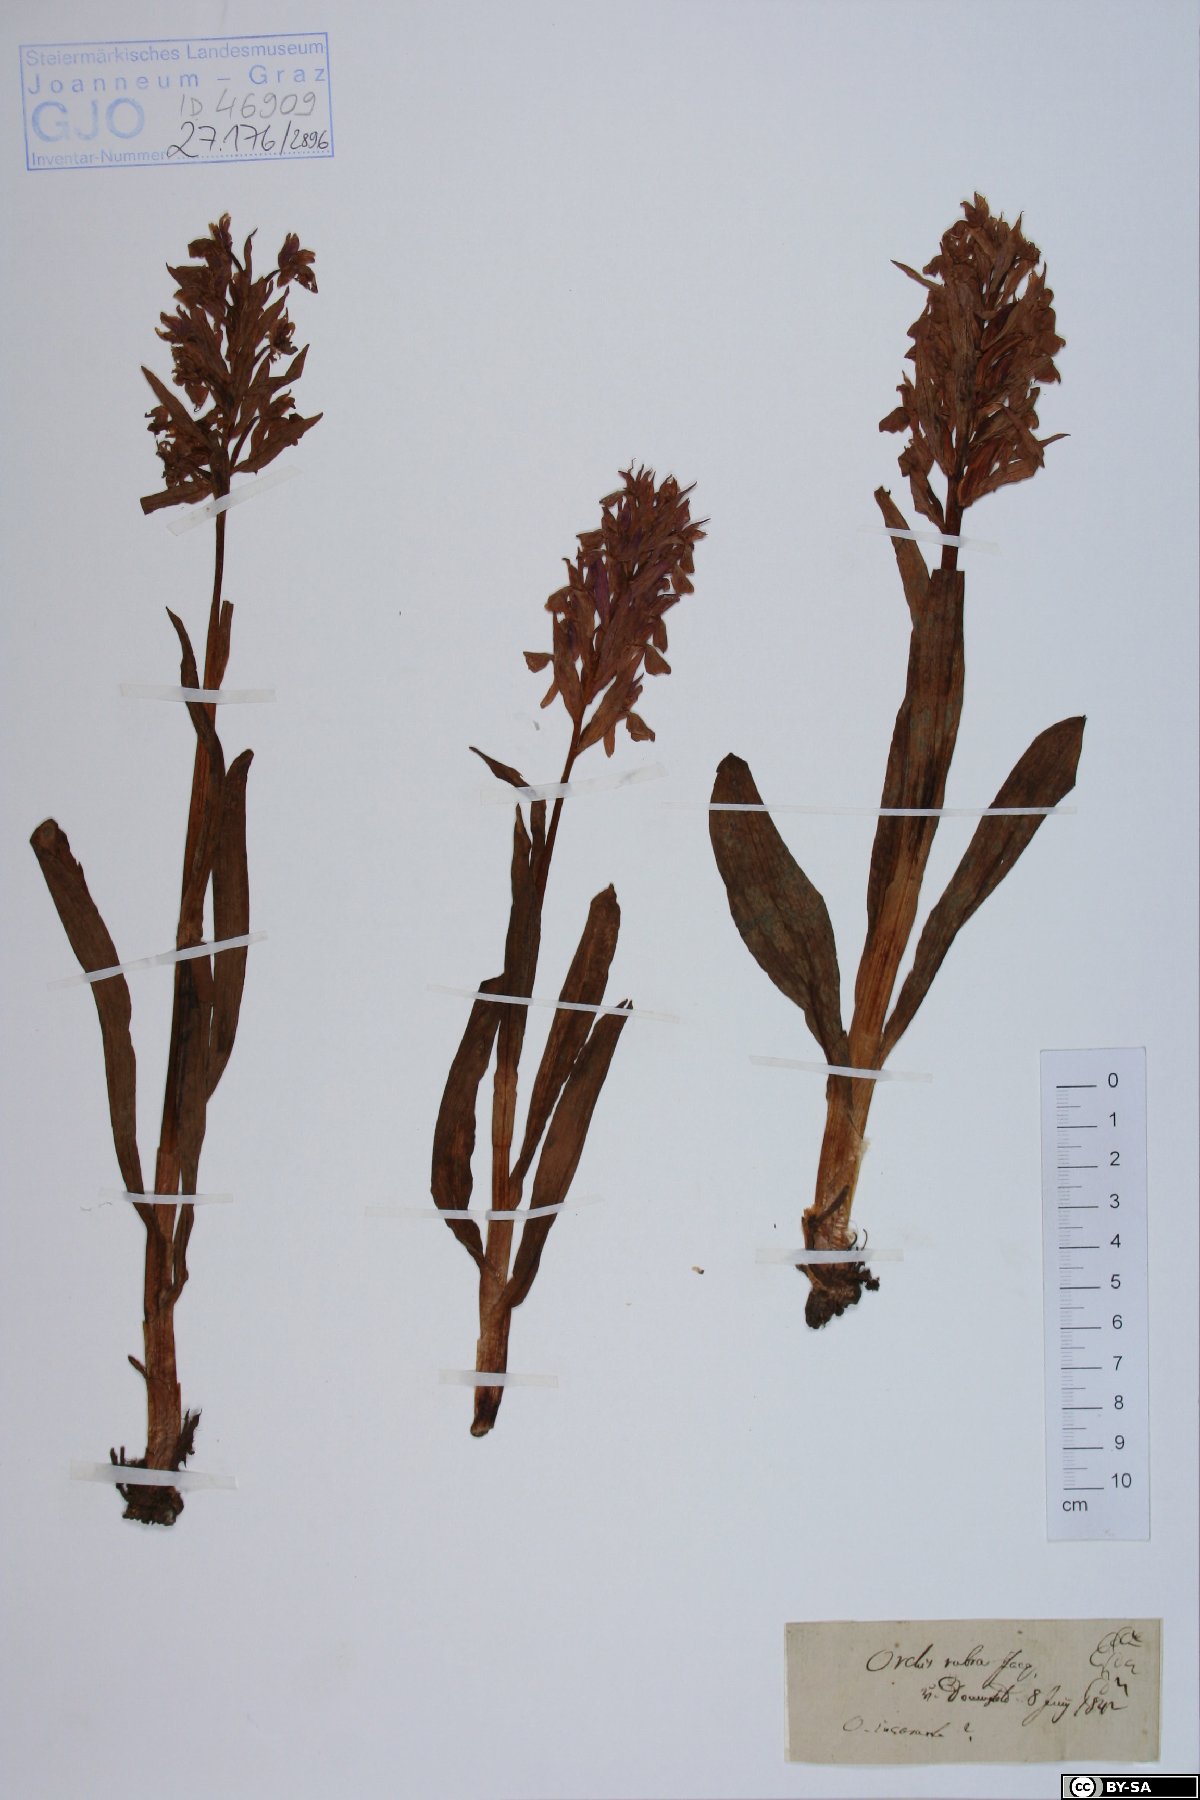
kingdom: Plantae
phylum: Tracheophyta
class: Liliopsida
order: Asparagales
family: Orchidaceae
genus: Anacamptis
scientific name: Anacamptis papilionacea
